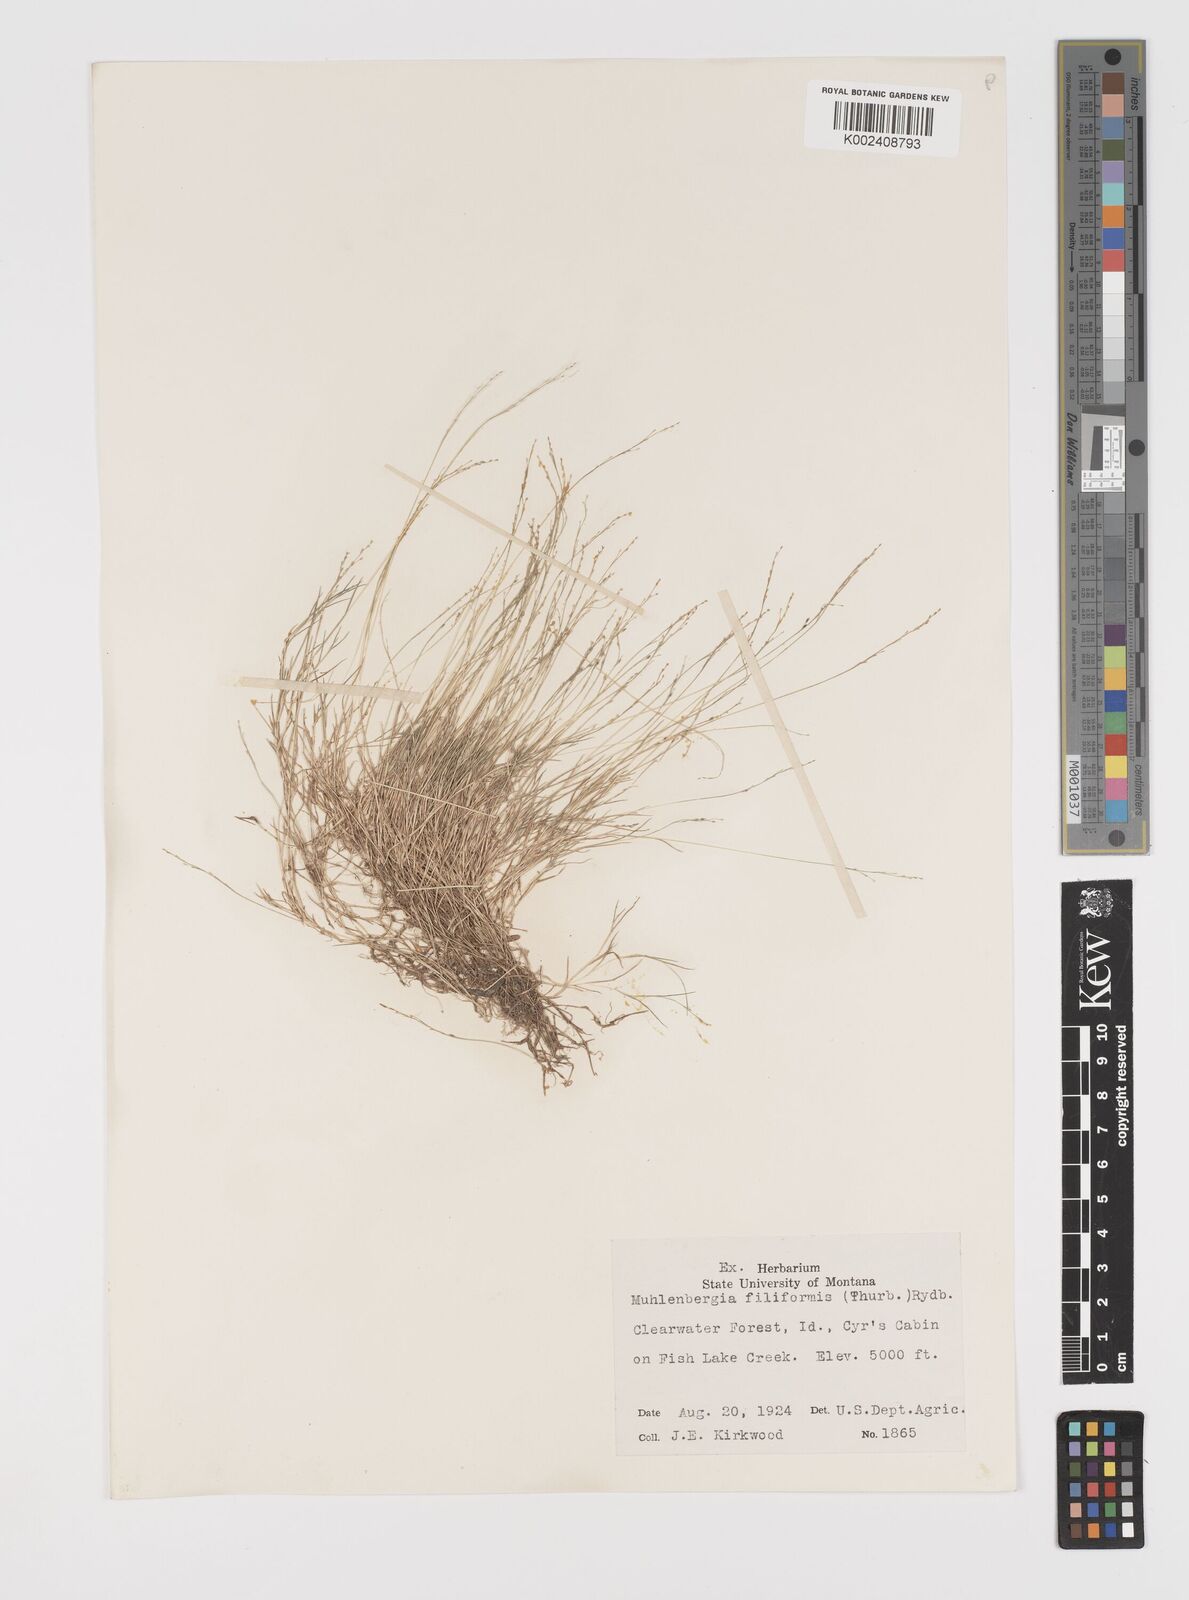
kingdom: Plantae
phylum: Tracheophyta
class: Liliopsida
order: Poales
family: Poaceae
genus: Leptochloa
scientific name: Leptochloa mucronata
